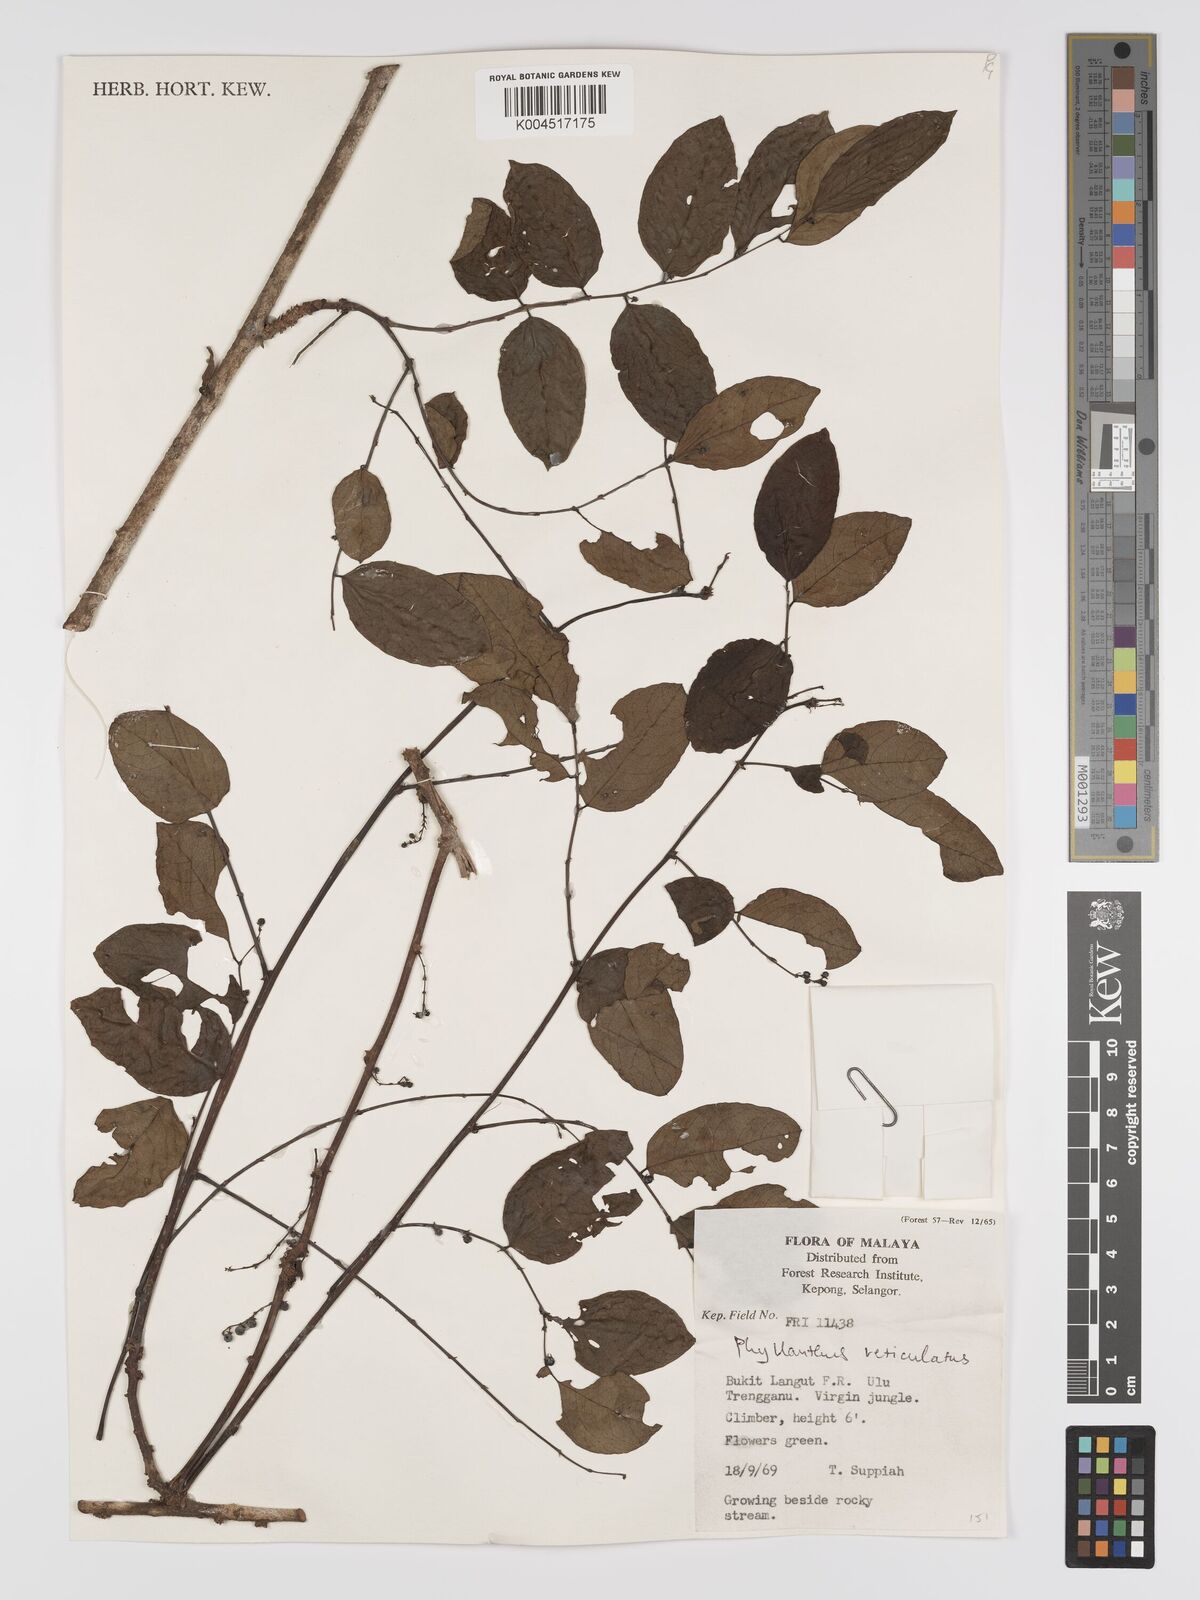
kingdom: Plantae
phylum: Tracheophyta
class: Magnoliopsida
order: Malpighiales
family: Phyllanthaceae
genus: Phyllanthus
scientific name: Phyllanthus microcarpus
